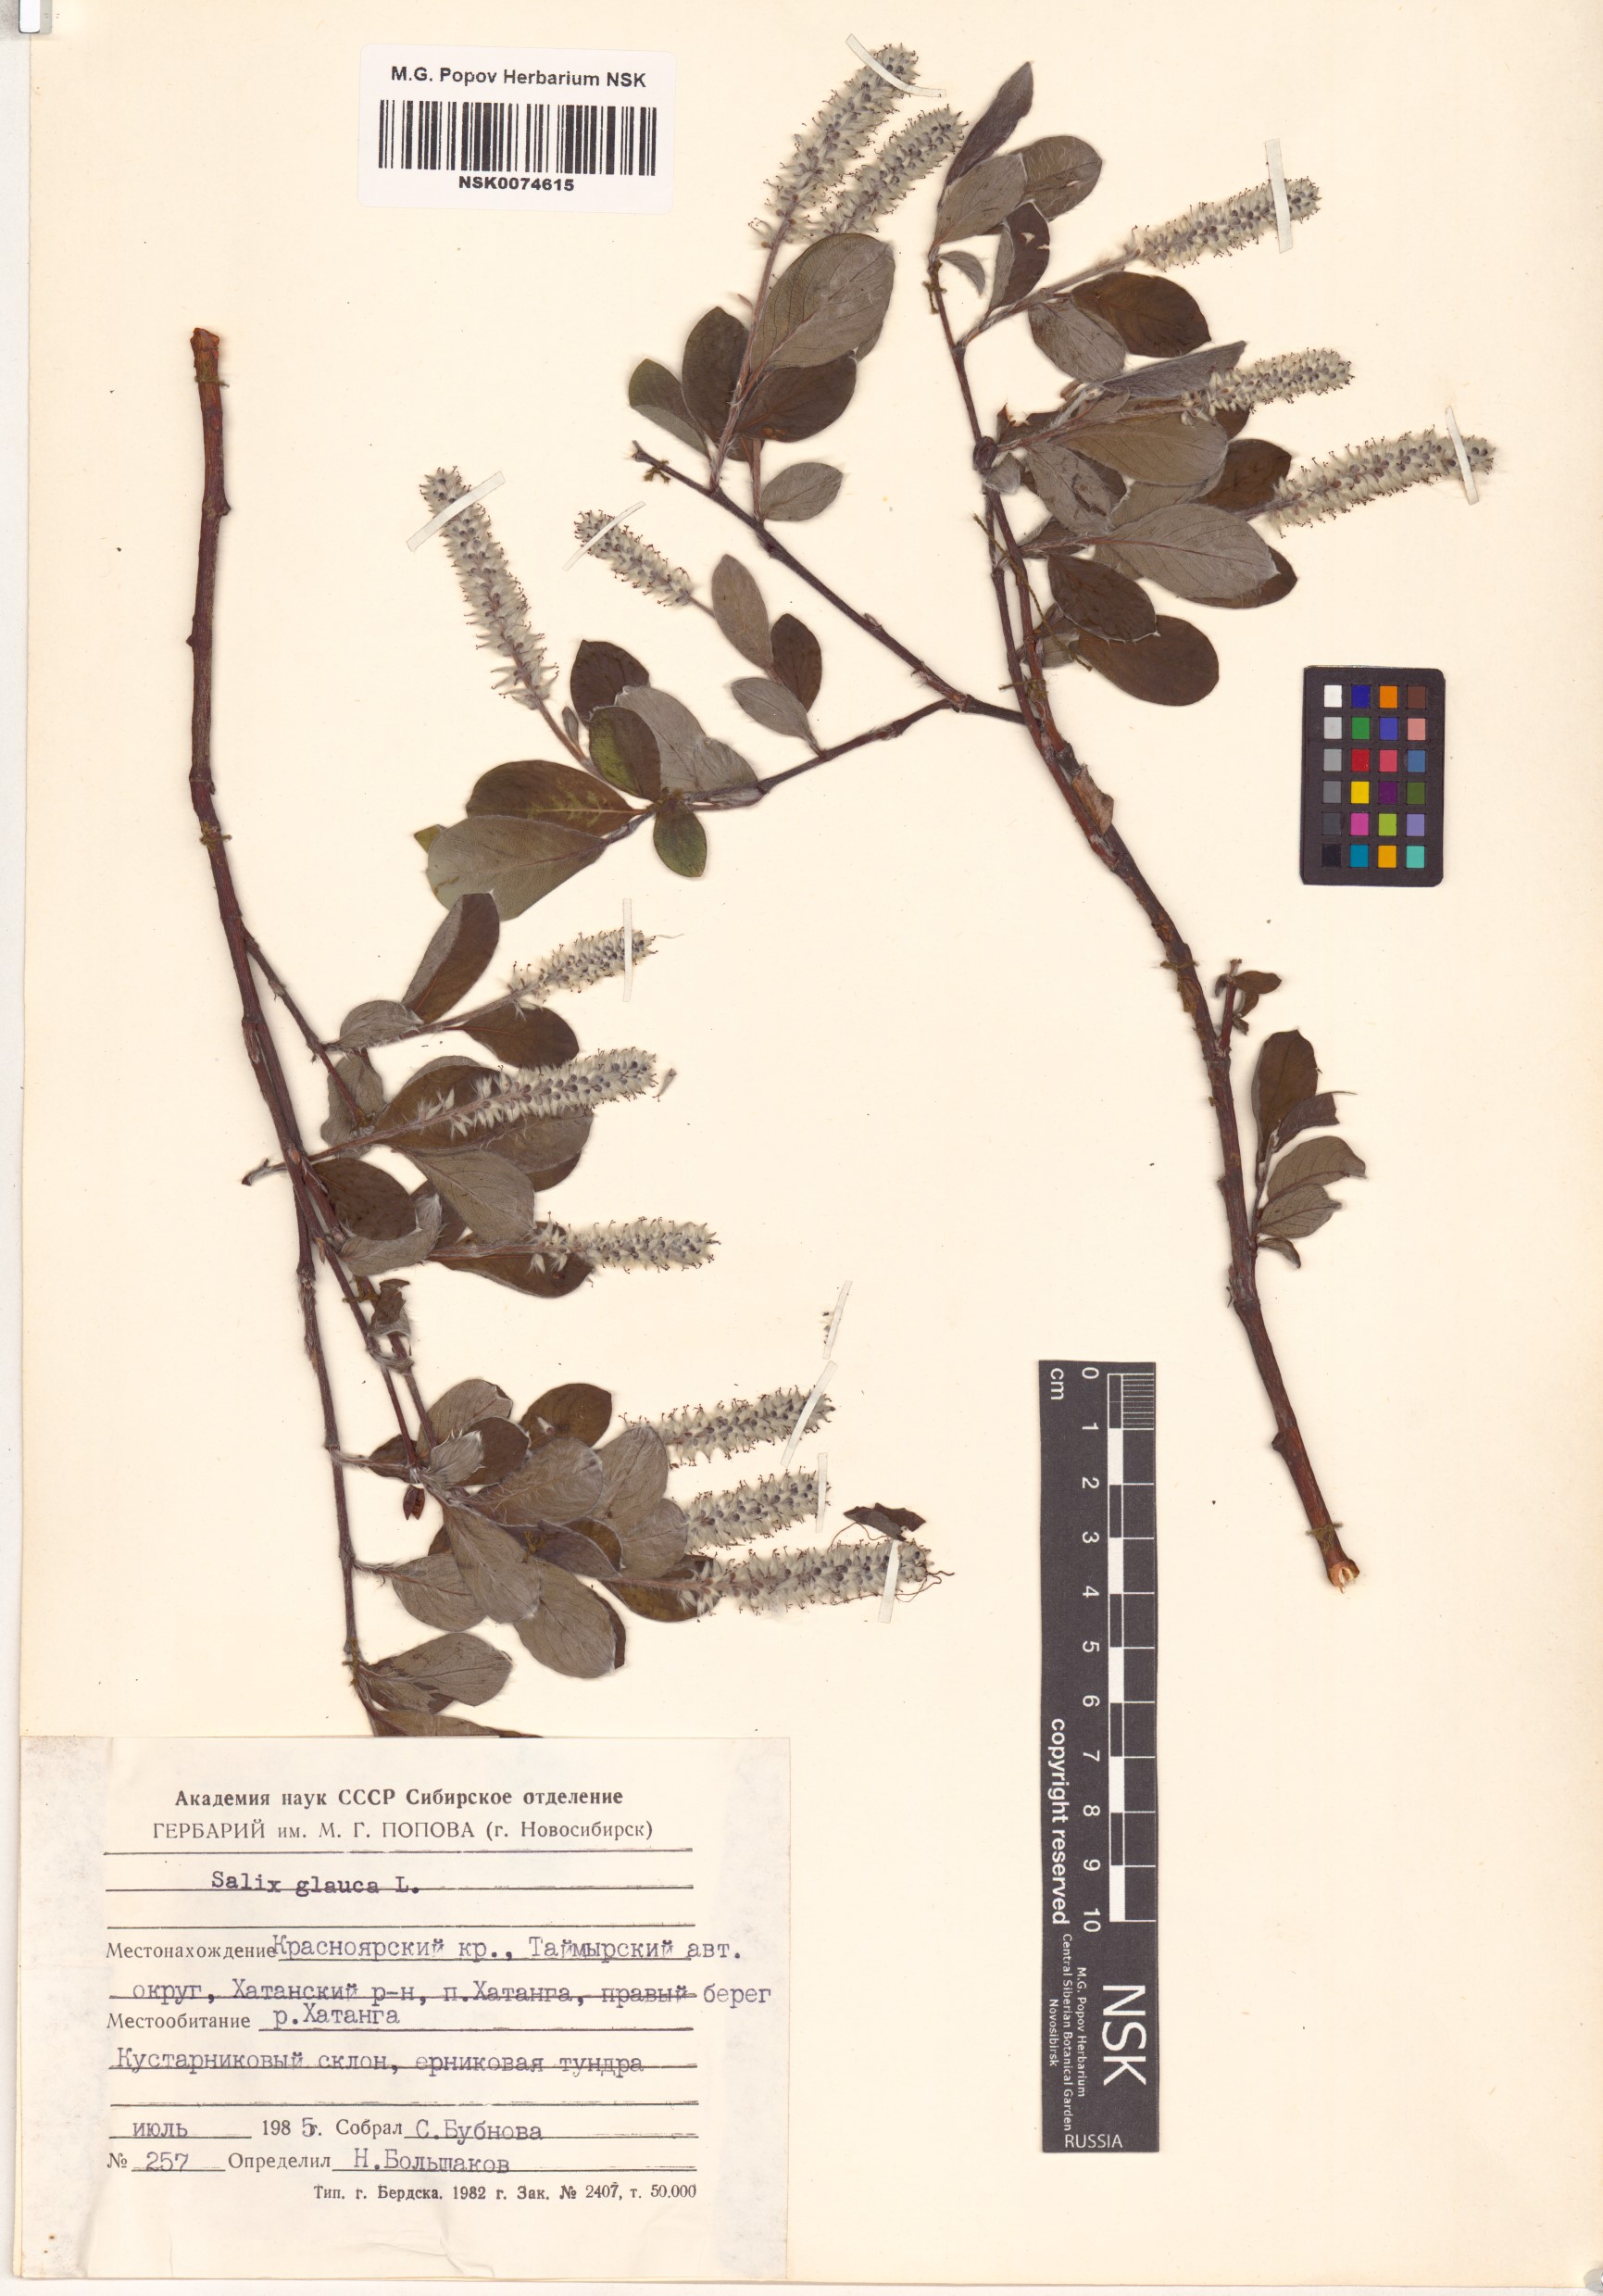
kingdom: Plantae
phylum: Tracheophyta
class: Magnoliopsida
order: Malpighiales
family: Salicaceae
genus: Salix
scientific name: Salix glauca
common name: Glaucous willow
